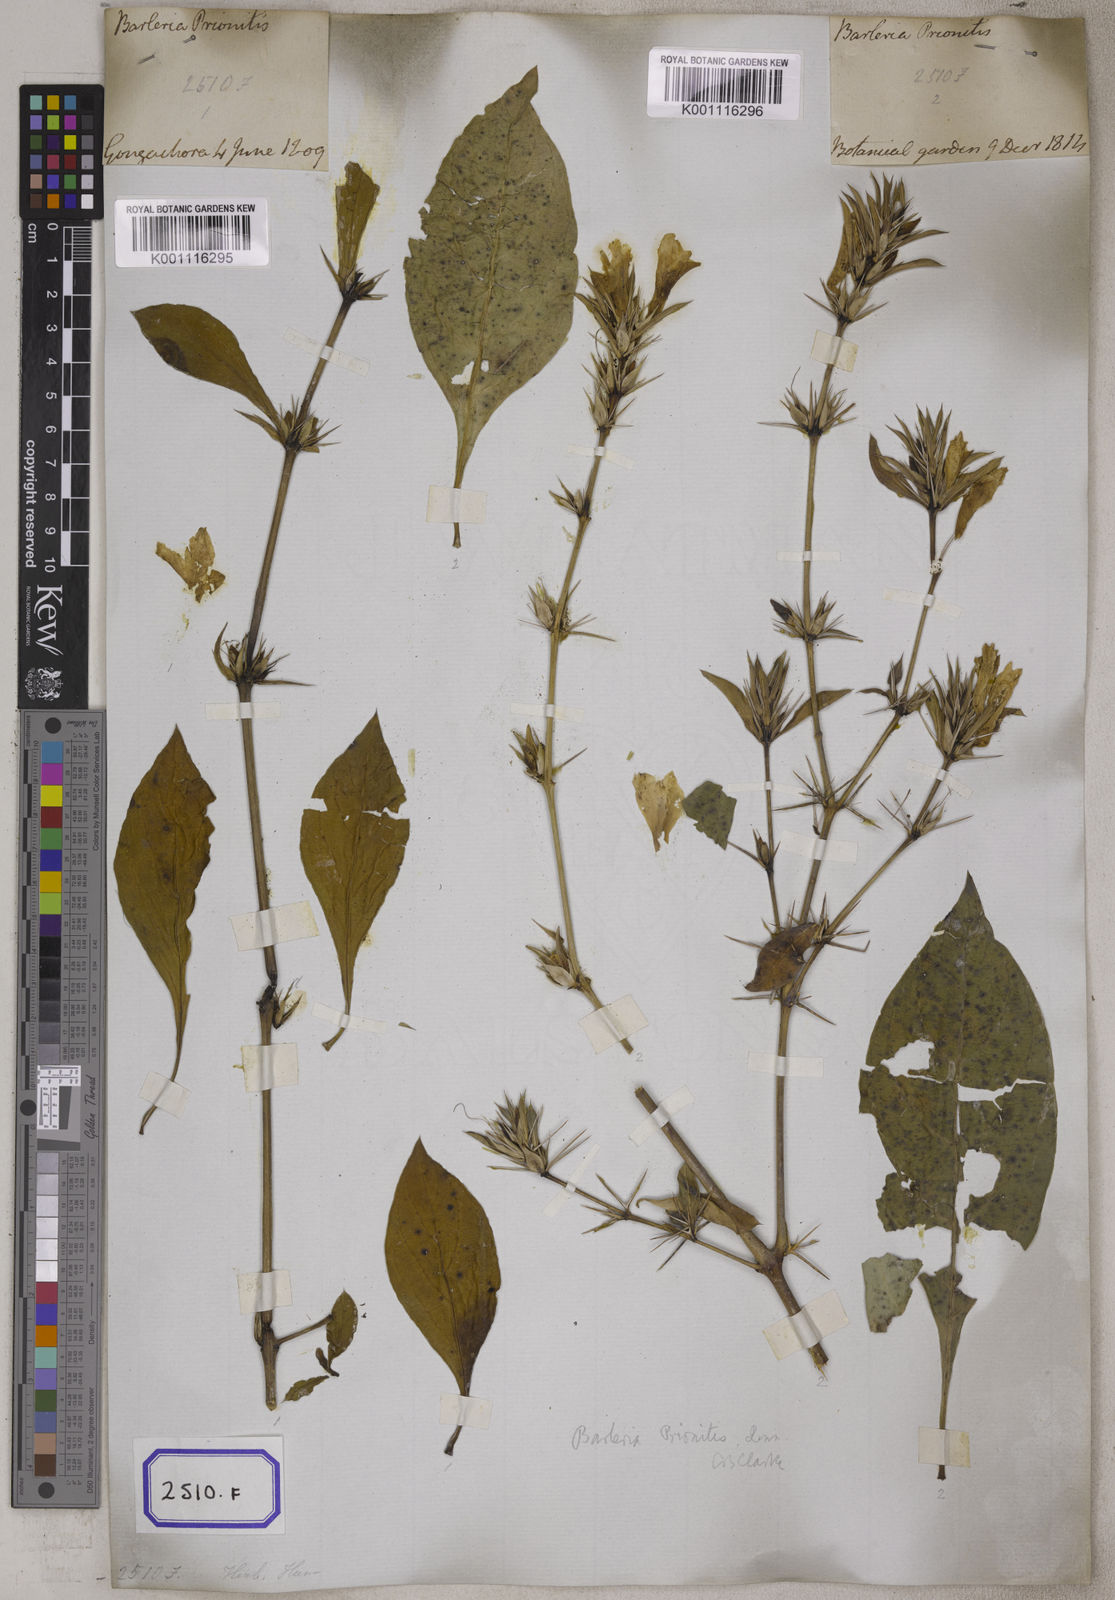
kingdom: Plantae
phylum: Tracheophyta
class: Magnoliopsida
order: Lamiales
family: Acanthaceae
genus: Barleria
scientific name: Barleria prionitis
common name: Barleria
